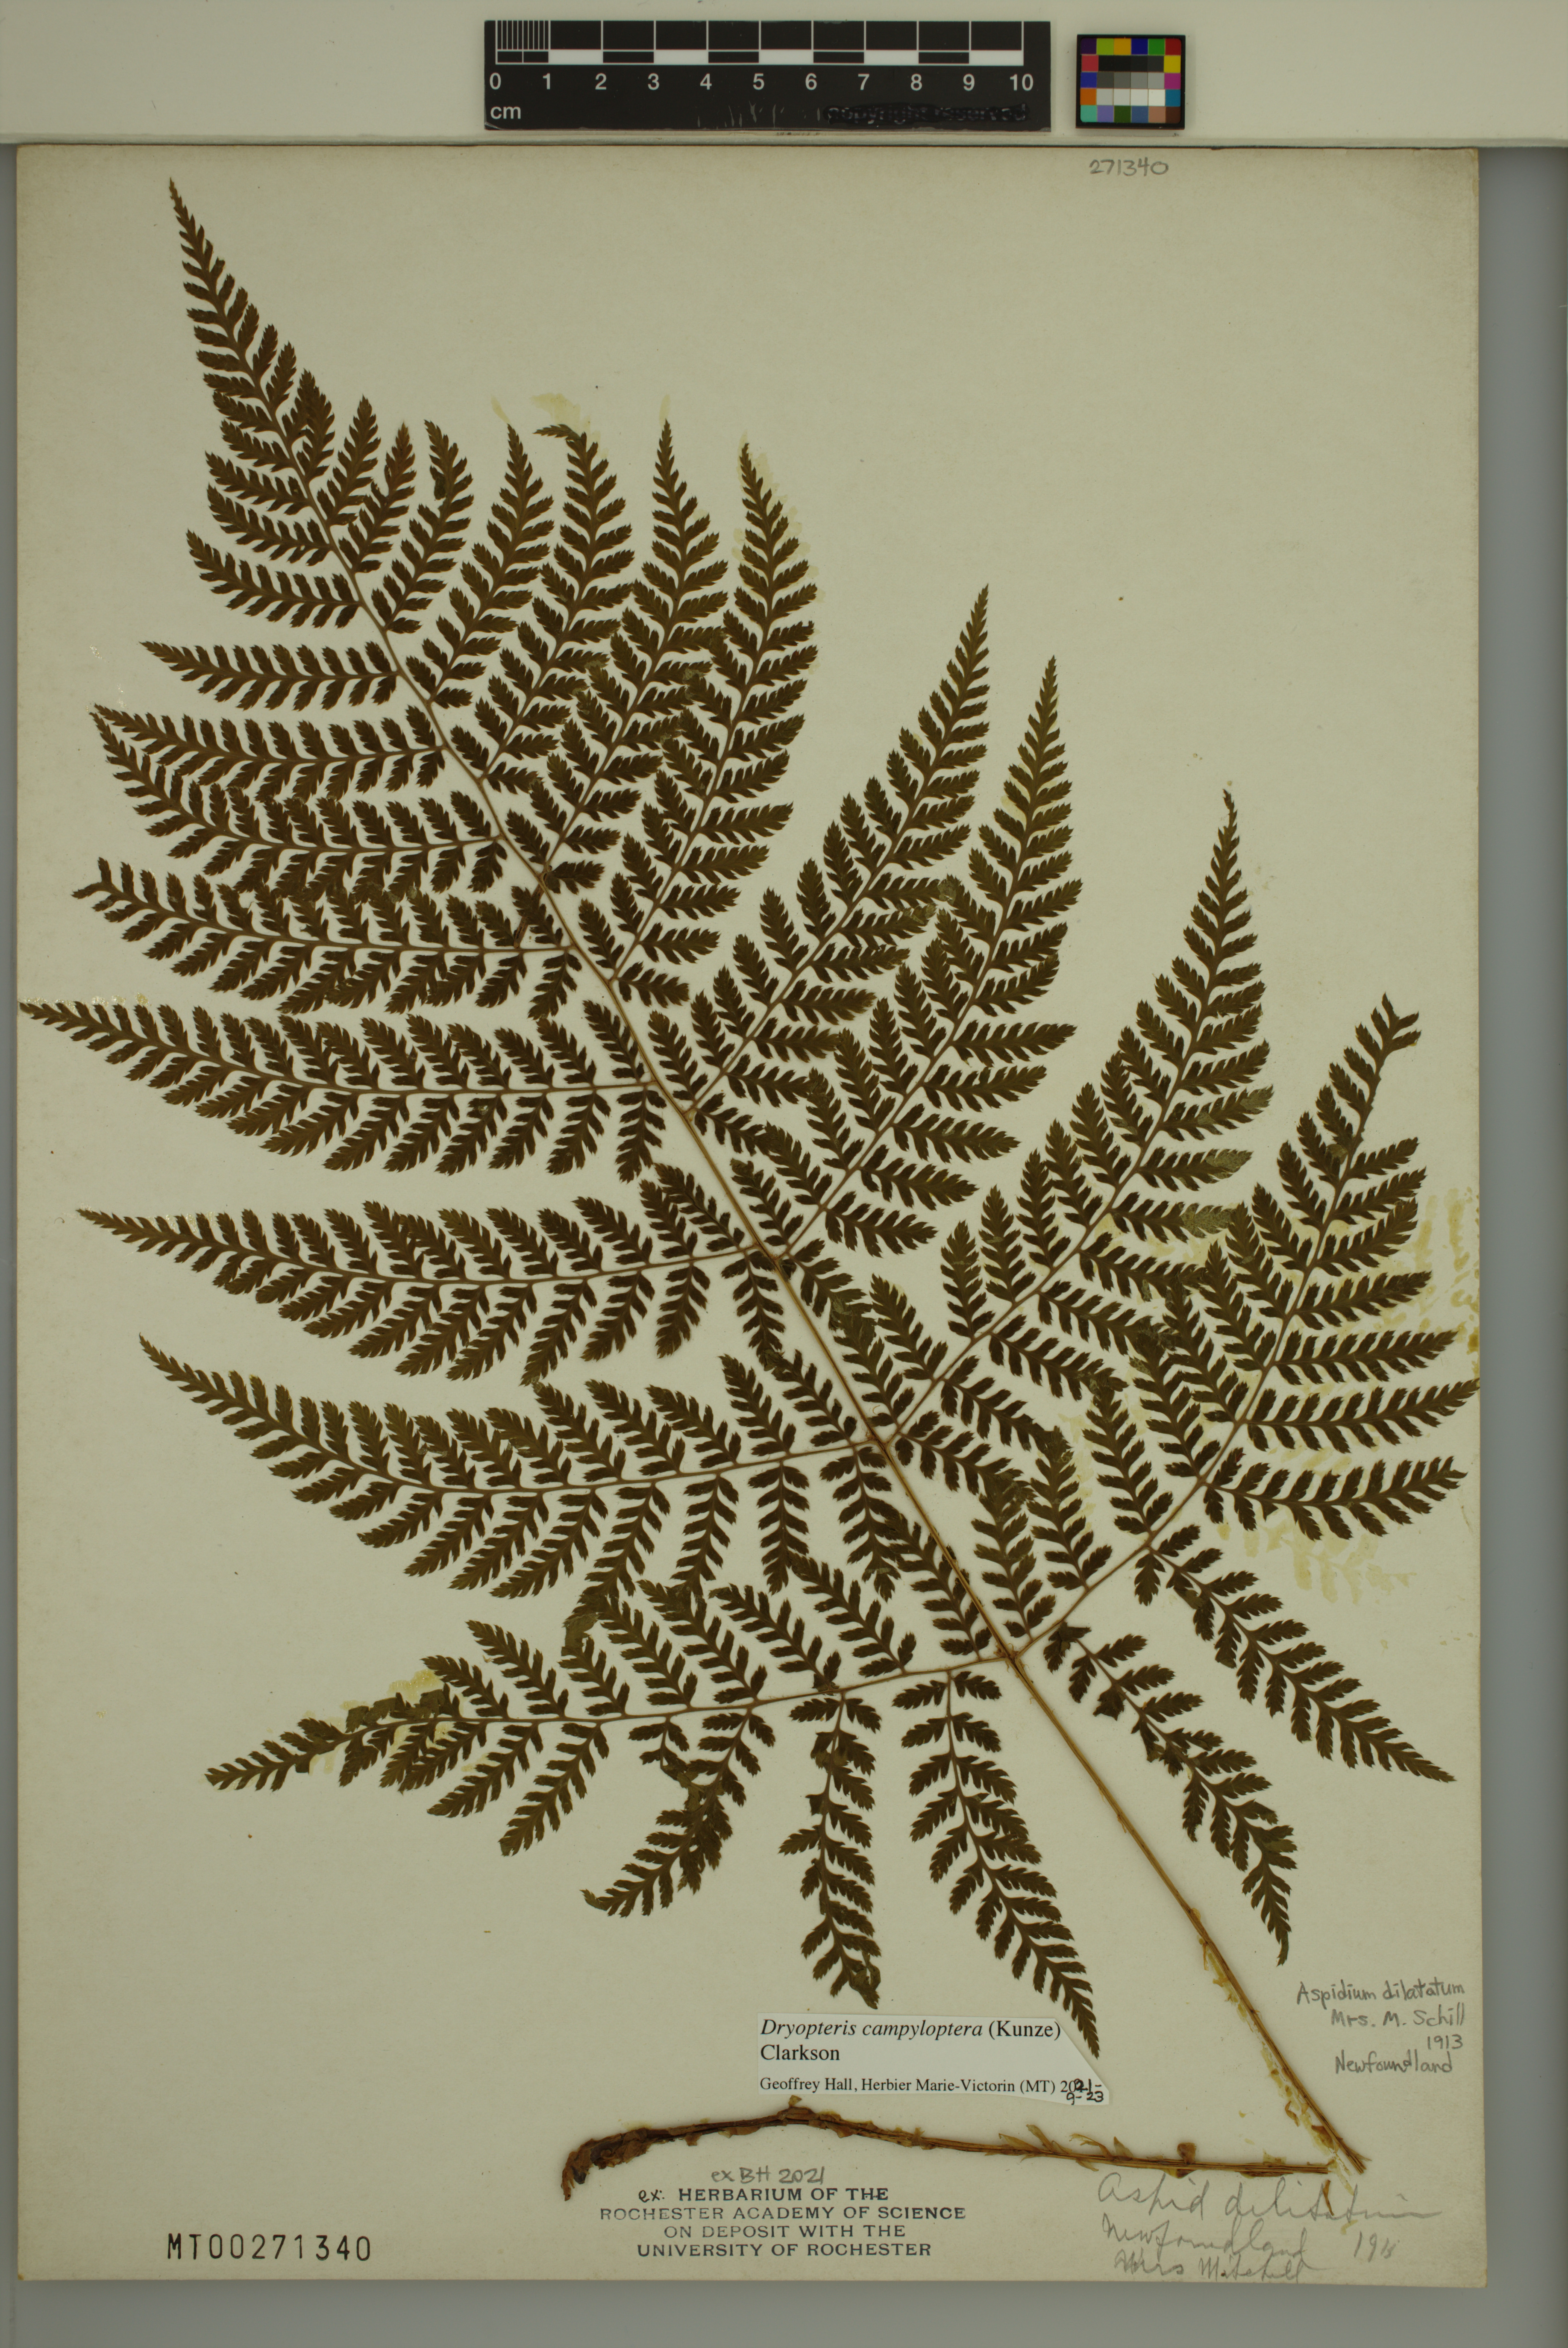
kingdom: Plantae
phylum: Tracheophyta
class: Polypodiopsida
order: Polypodiales
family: Dryopteridaceae
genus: Dryopteris
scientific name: Dryopteris campyloptera
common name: Mountain wood fern
